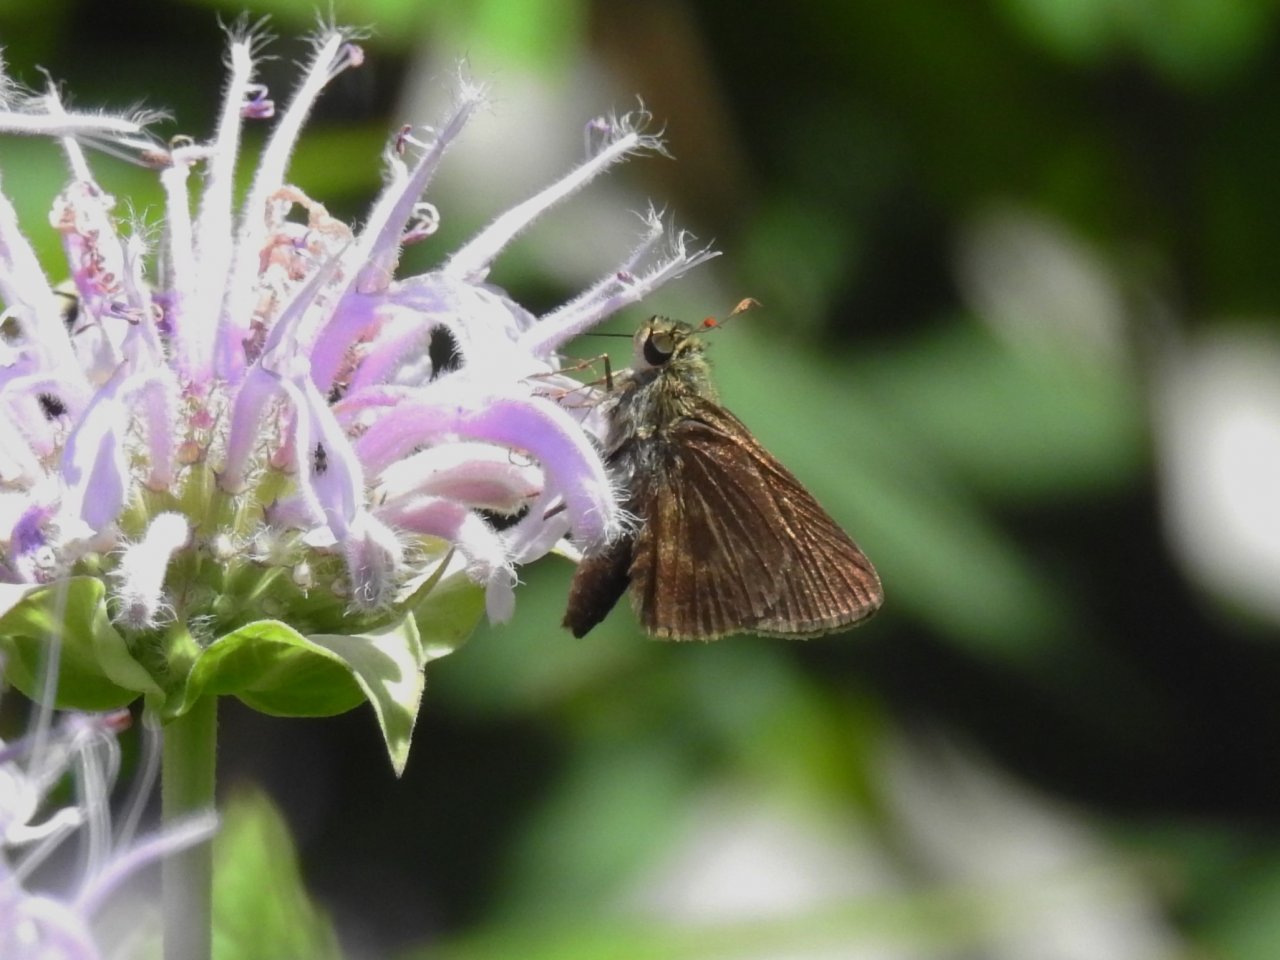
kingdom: Animalia
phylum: Arthropoda
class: Insecta
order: Lepidoptera
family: Hesperiidae
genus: Polites
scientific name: Polites egeremet
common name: Northern Broken-Dash
